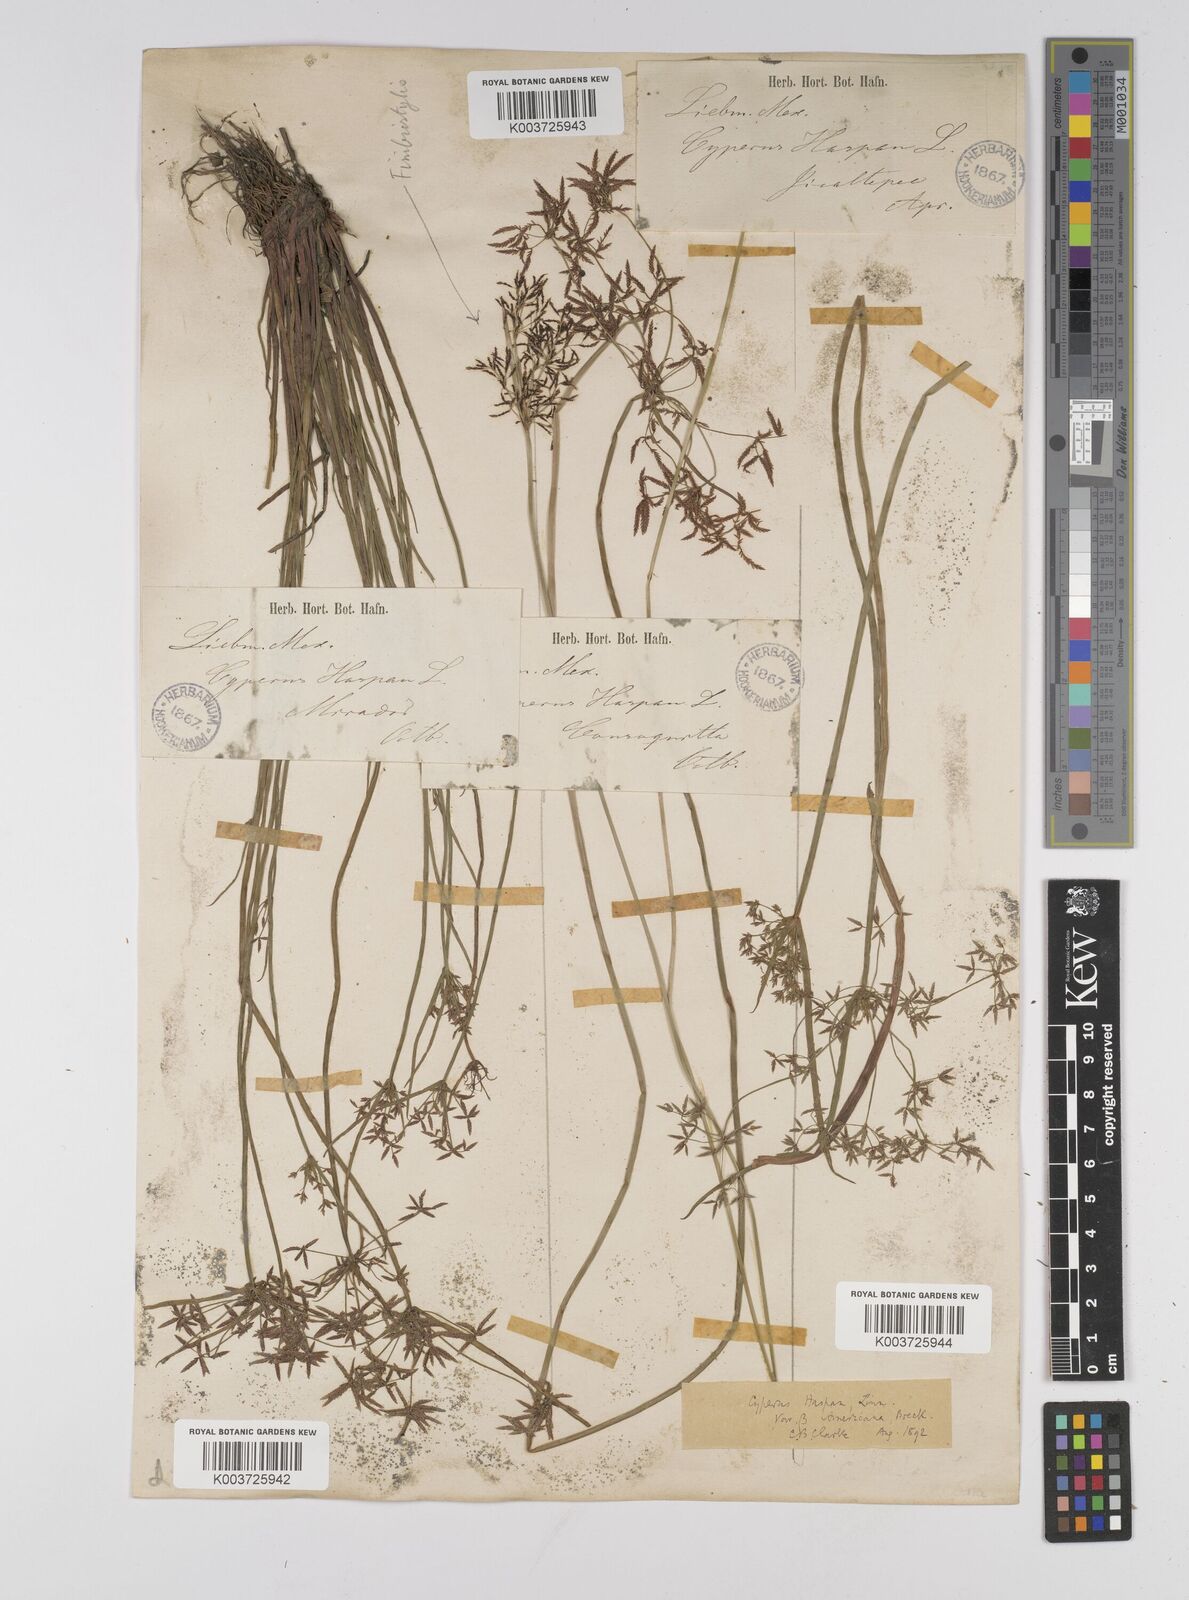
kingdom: Plantae
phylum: Tracheophyta
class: Liliopsida
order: Poales
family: Cyperaceae
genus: Cyperus
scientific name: Cyperus haspan
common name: Haspan flatsedge
